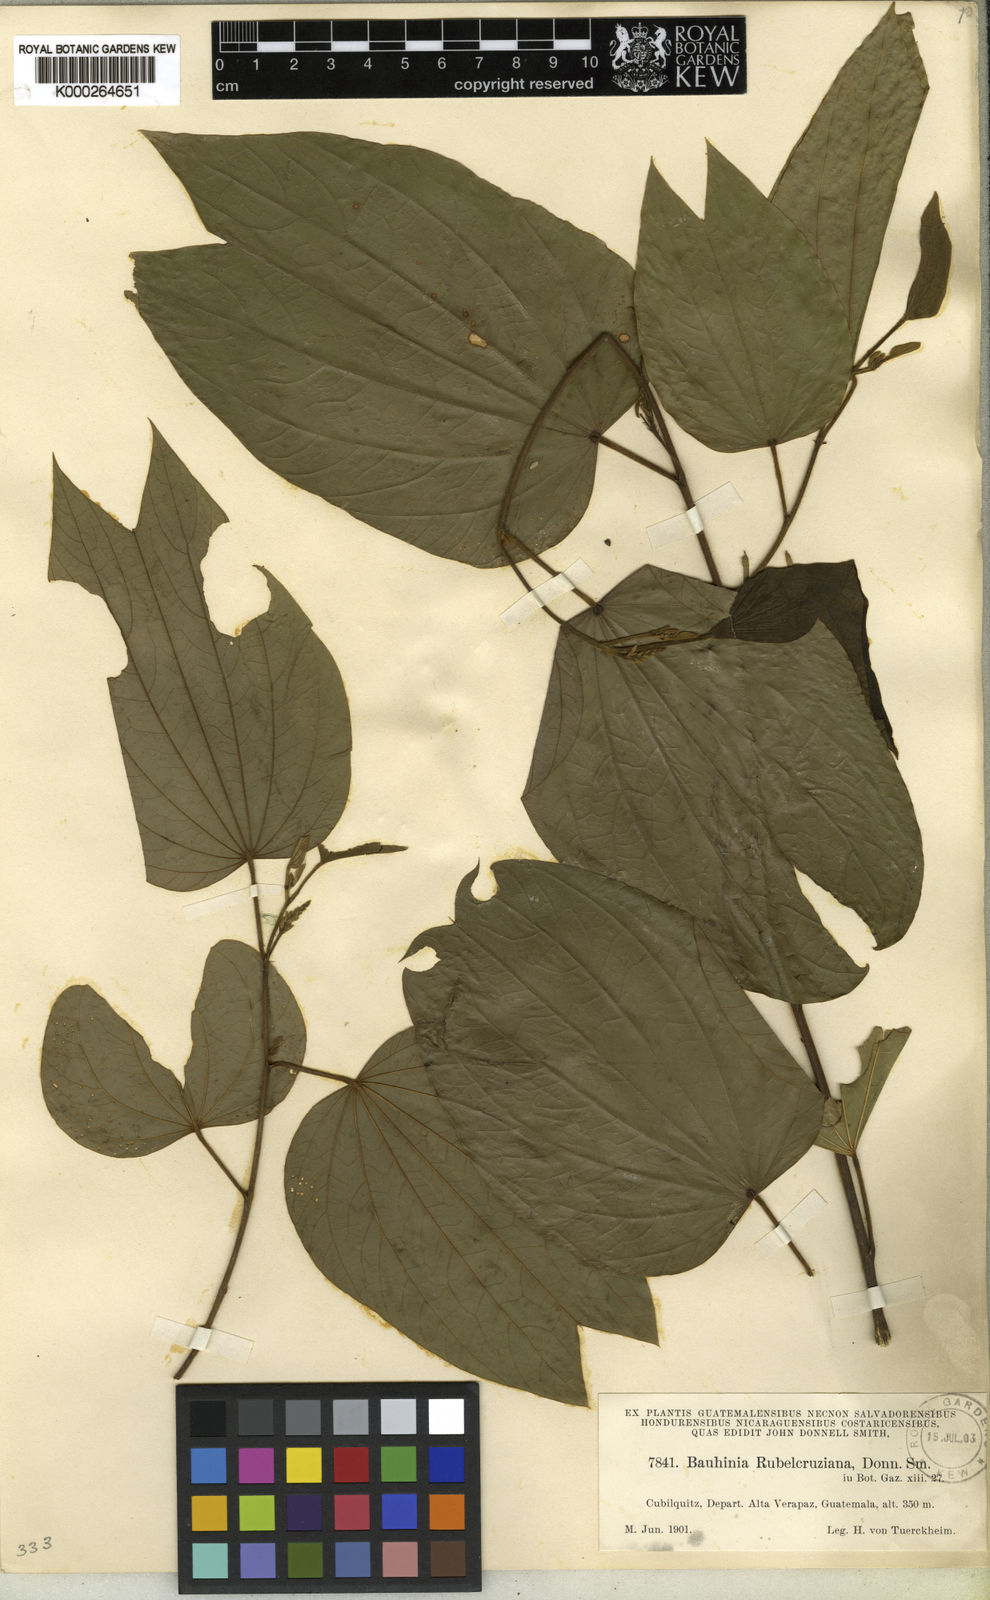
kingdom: Plantae
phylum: Tracheophyta
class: Magnoliopsida
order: Fabales
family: Fabaceae
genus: Bauhinia
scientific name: Bauhinia rubeleruziana
